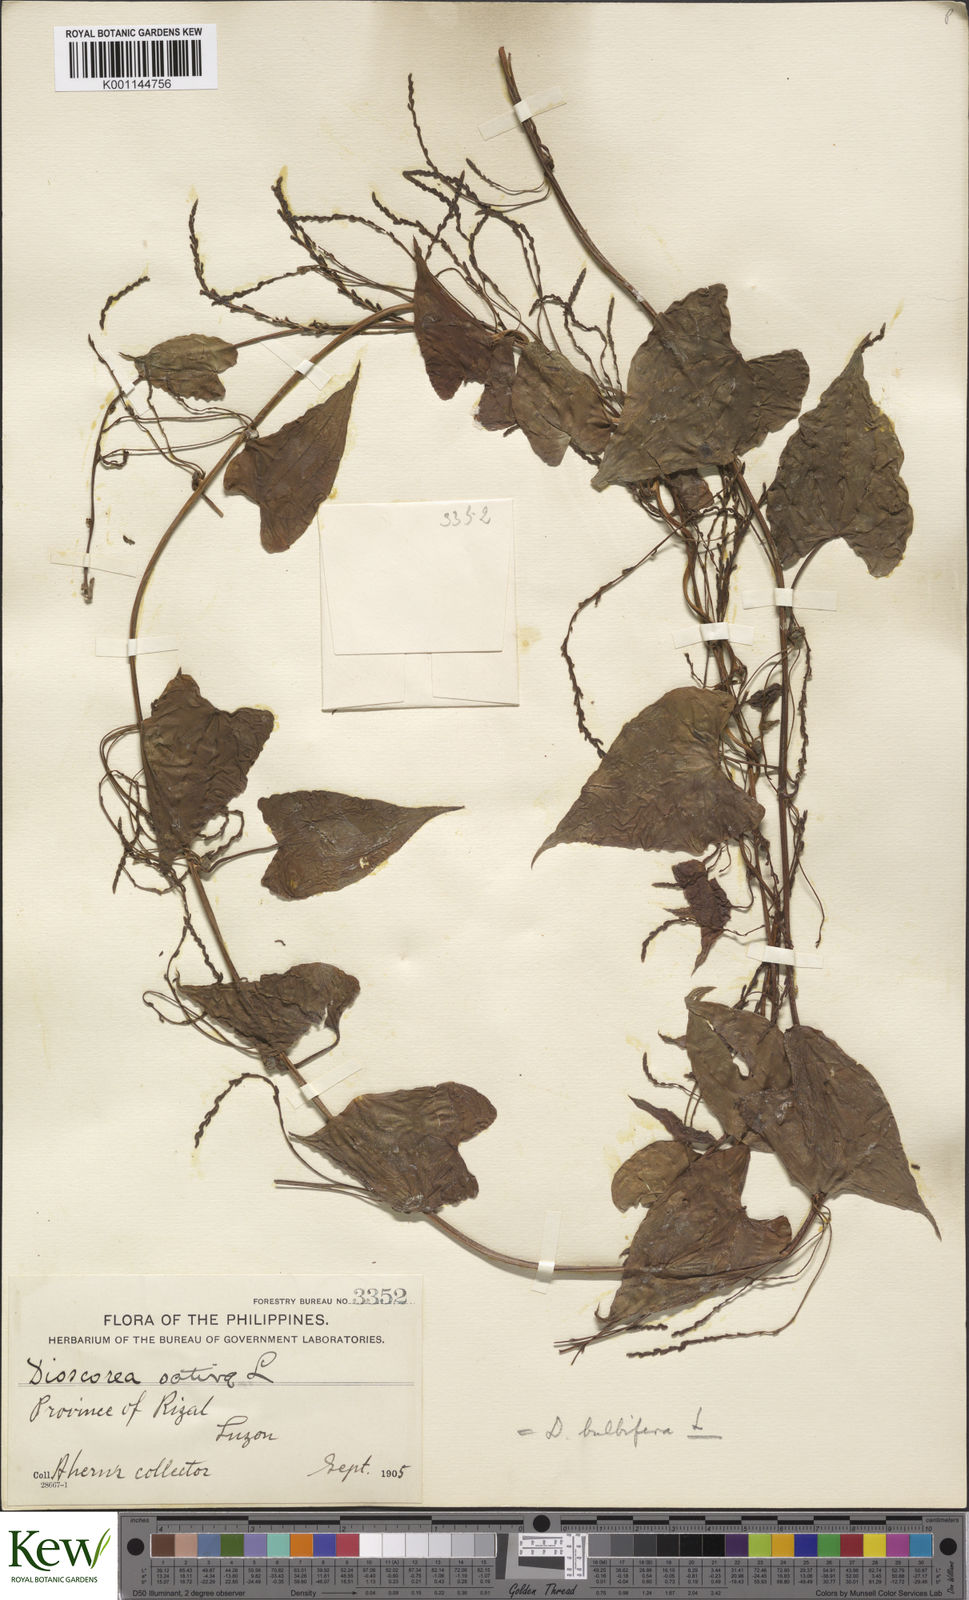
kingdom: Plantae
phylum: Tracheophyta
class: Liliopsida
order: Dioscoreales
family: Dioscoreaceae
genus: Dioscorea
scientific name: Dioscorea bulbifera
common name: Air yam
